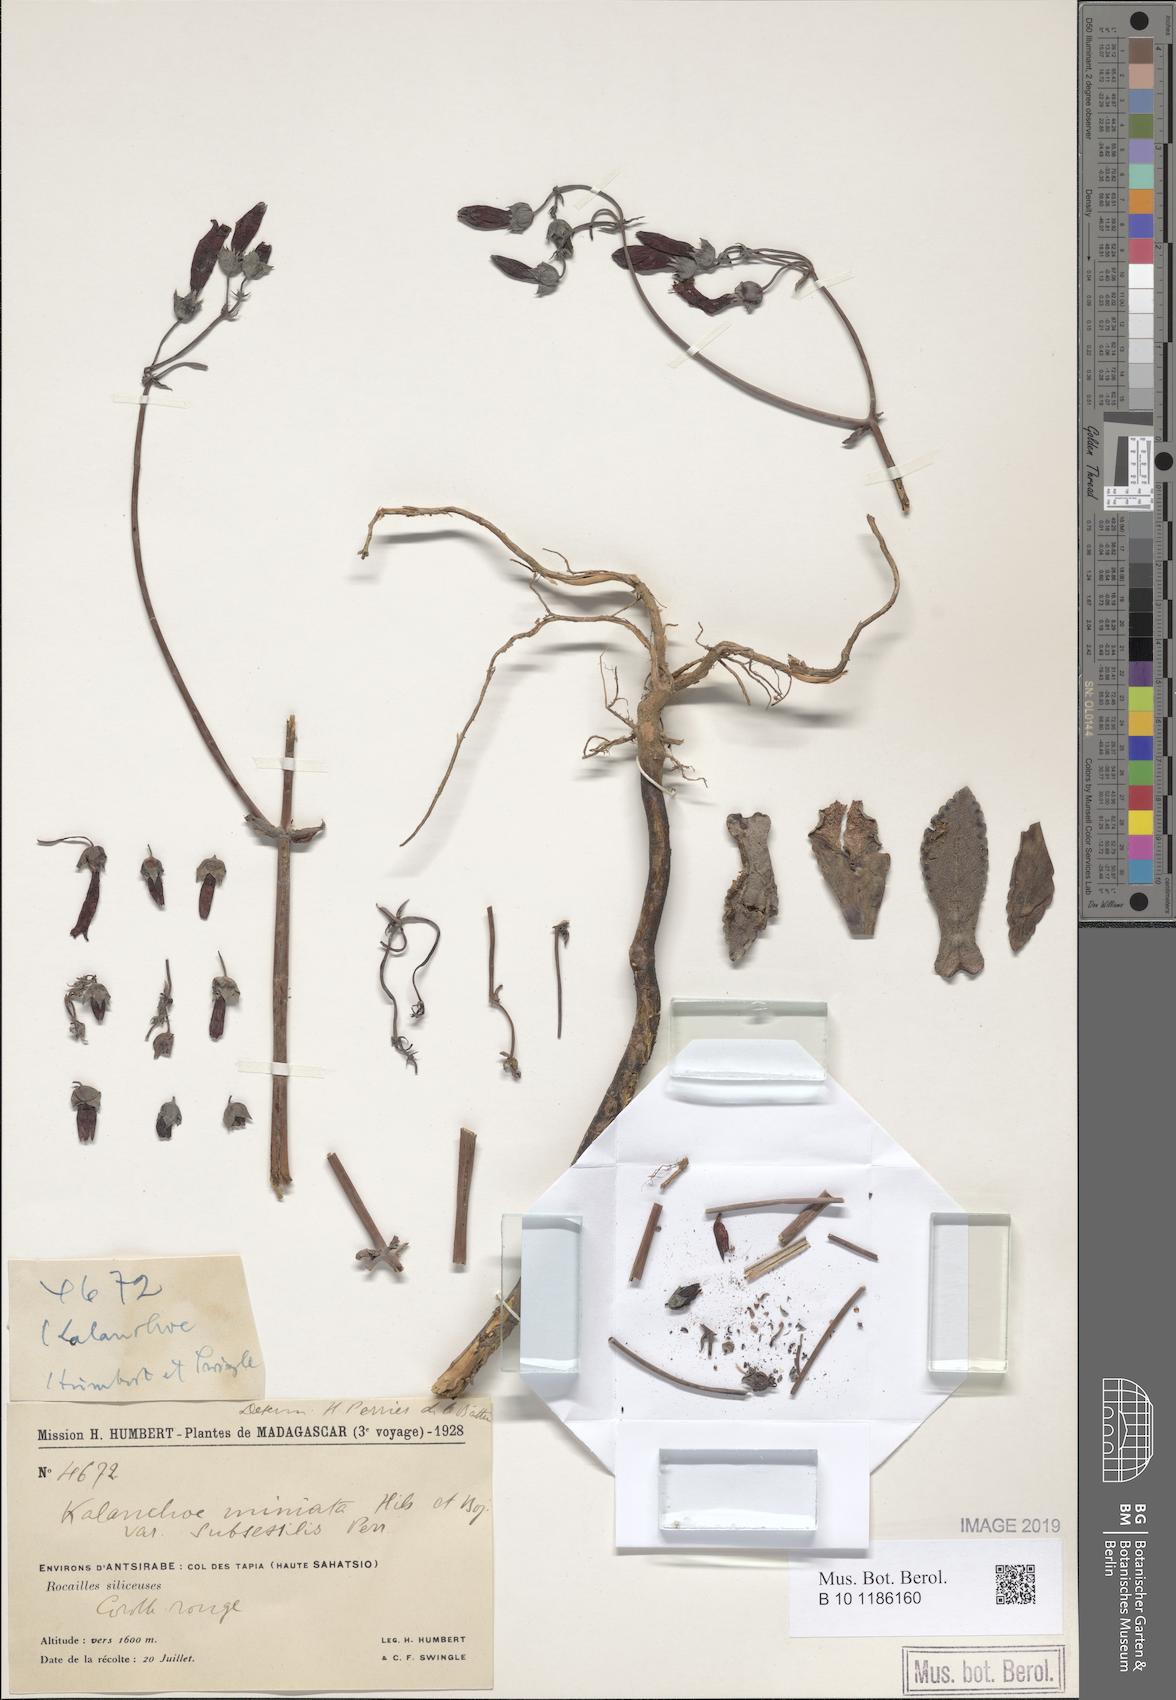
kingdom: Plantae
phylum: Tracheophyta
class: Magnoliopsida
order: Saxifragales
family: Crassulaceae
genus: Kalanchoe
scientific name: Kalanchoe miniata
